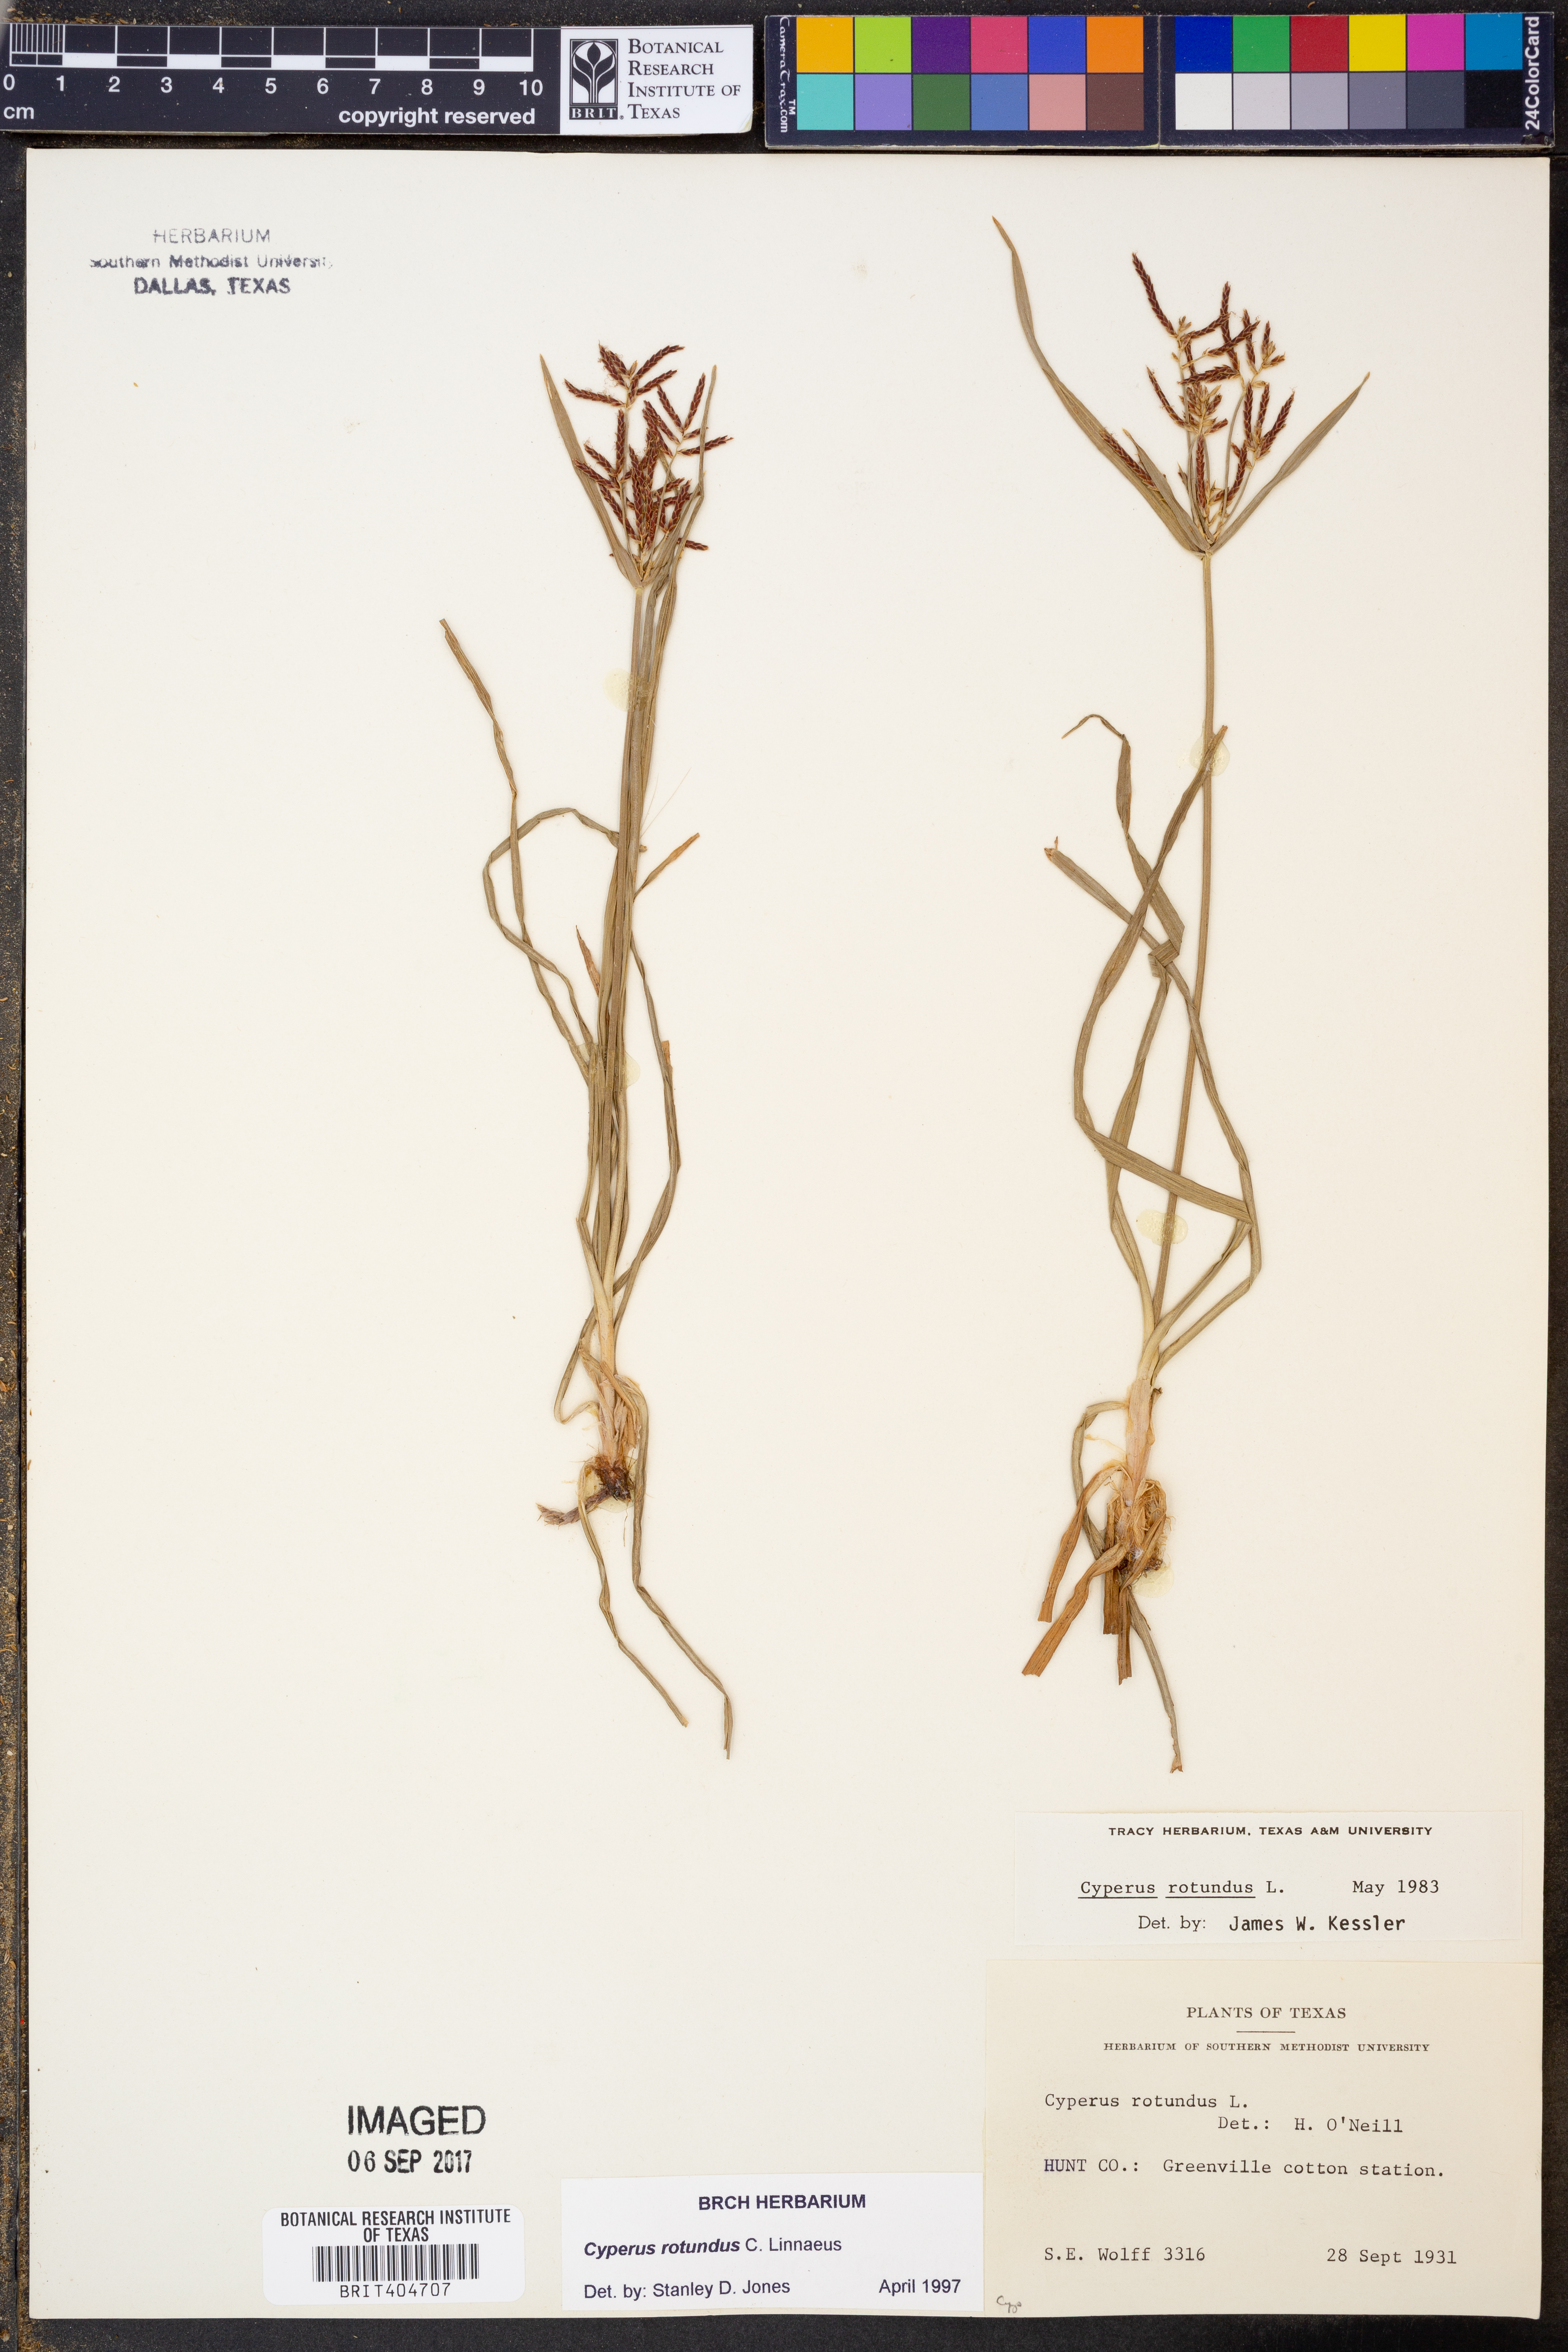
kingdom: Plantae
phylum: Tracheophyta
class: Liliopsida
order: Poales
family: Cyperaceae
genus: Cyperus
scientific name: Cyperus rotundus
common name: Nutgrass
